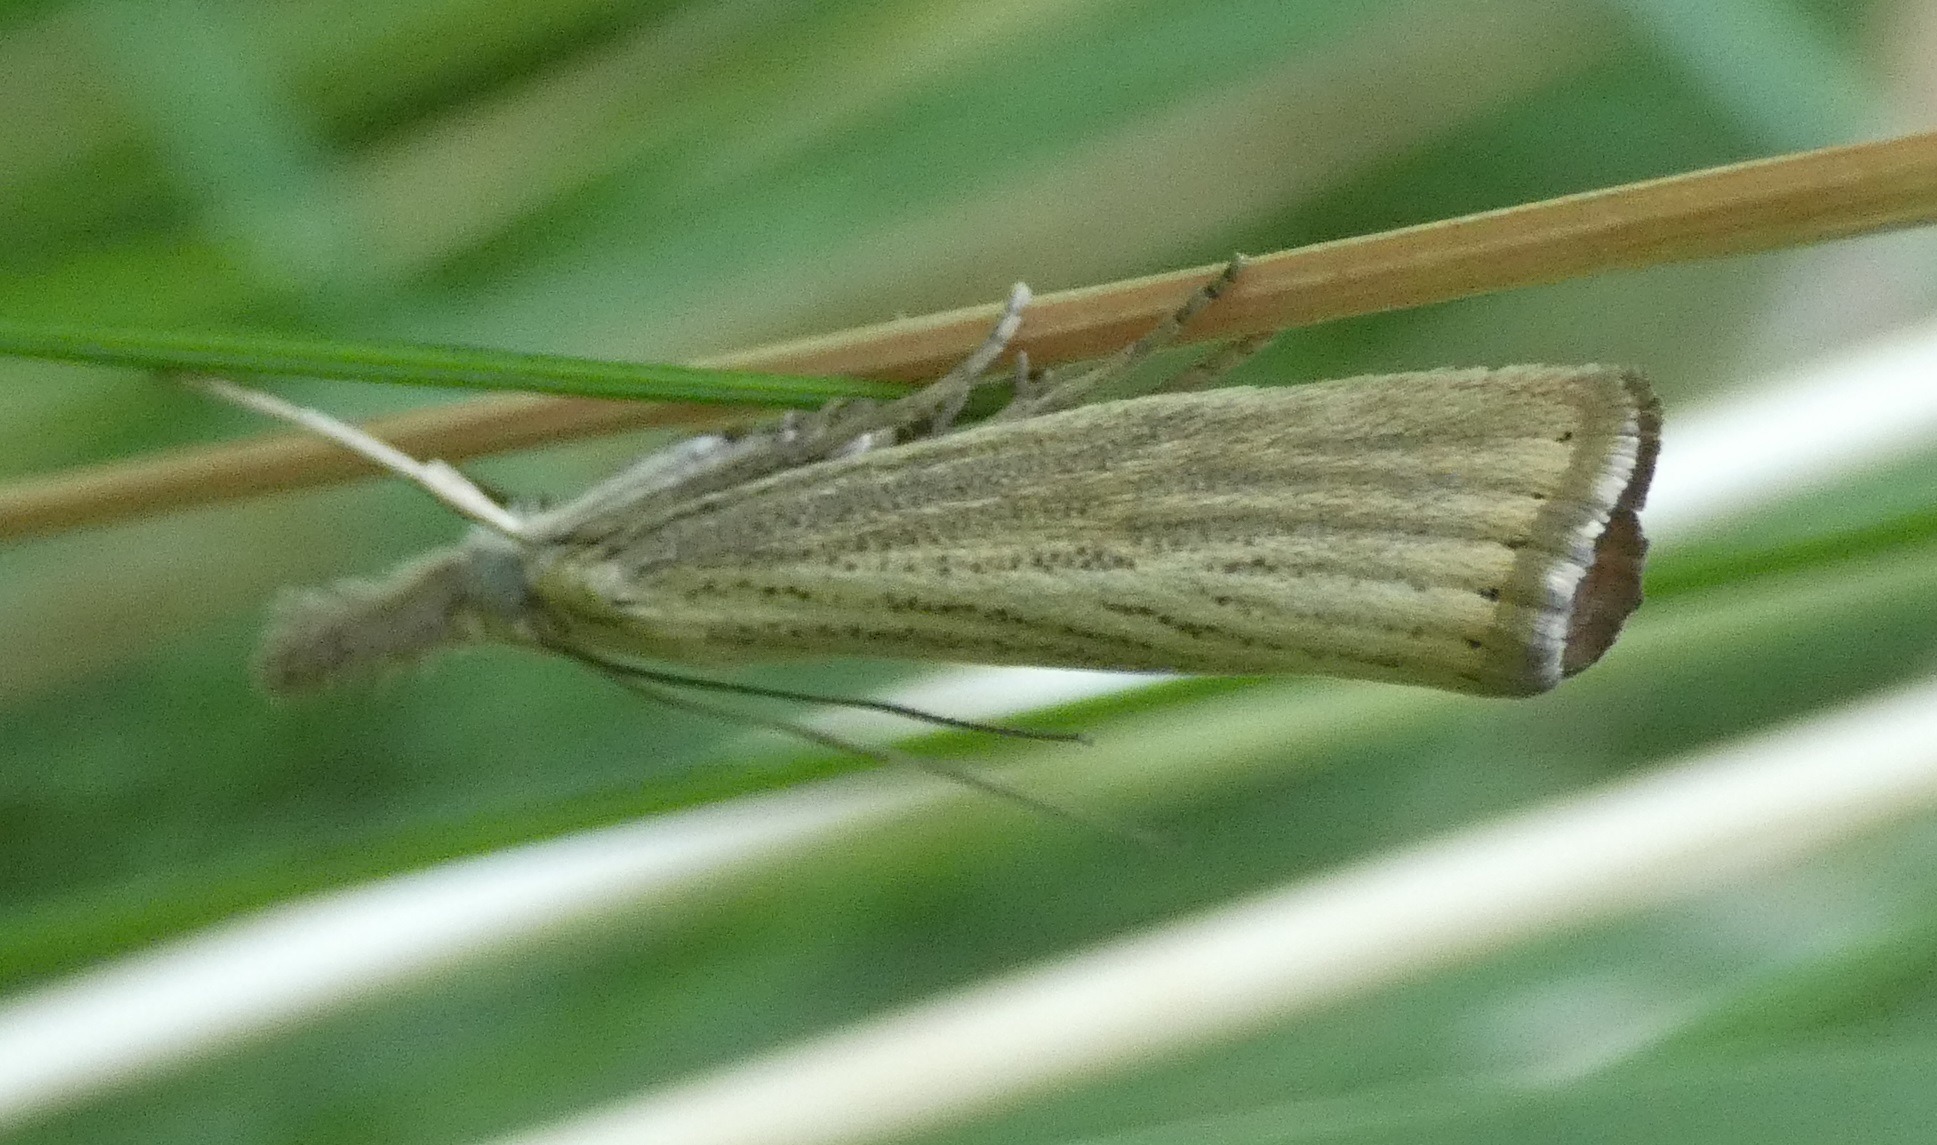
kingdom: Animalia
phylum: Arthropoda
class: Insecta
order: Lepidoptera
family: Crambidae
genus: Agriphila
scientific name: Agriphila straminella
